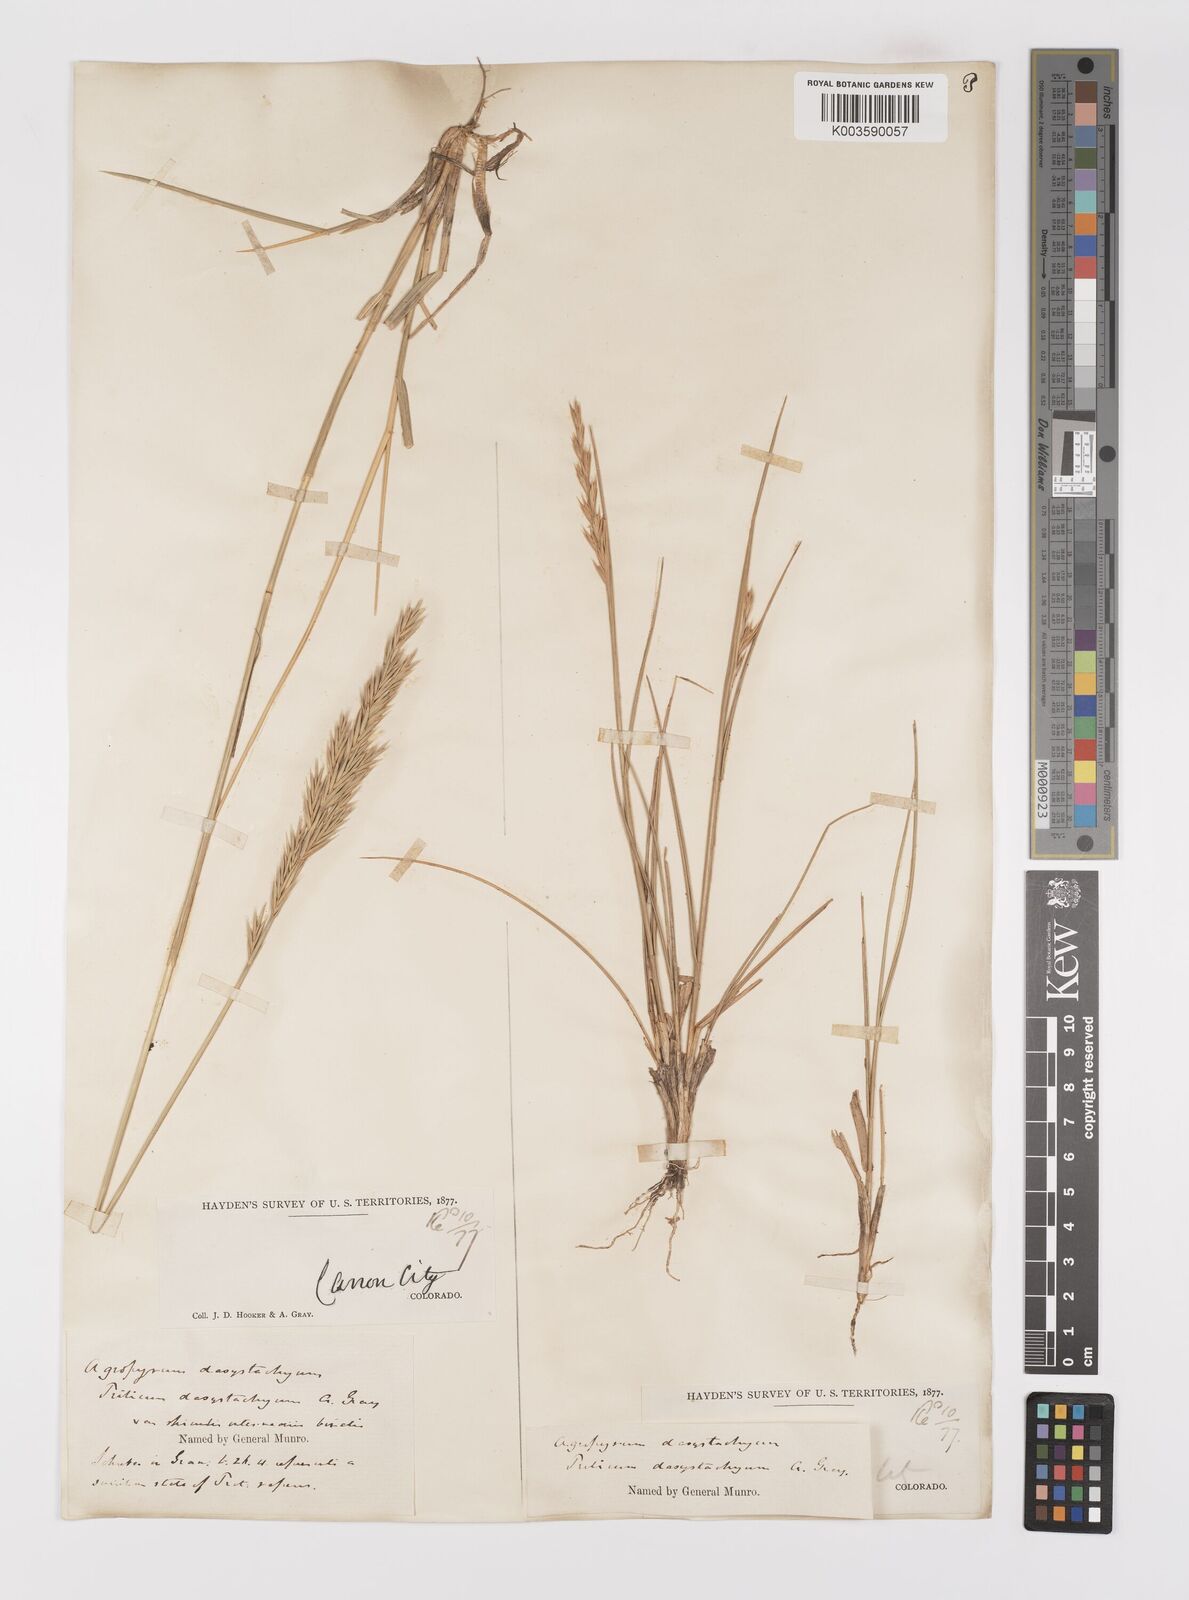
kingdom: Plantae
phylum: Tracheophyta
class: Liliopsida
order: Poales
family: Poaceae
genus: Elymus
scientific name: Elymus repens
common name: Quackgrass
